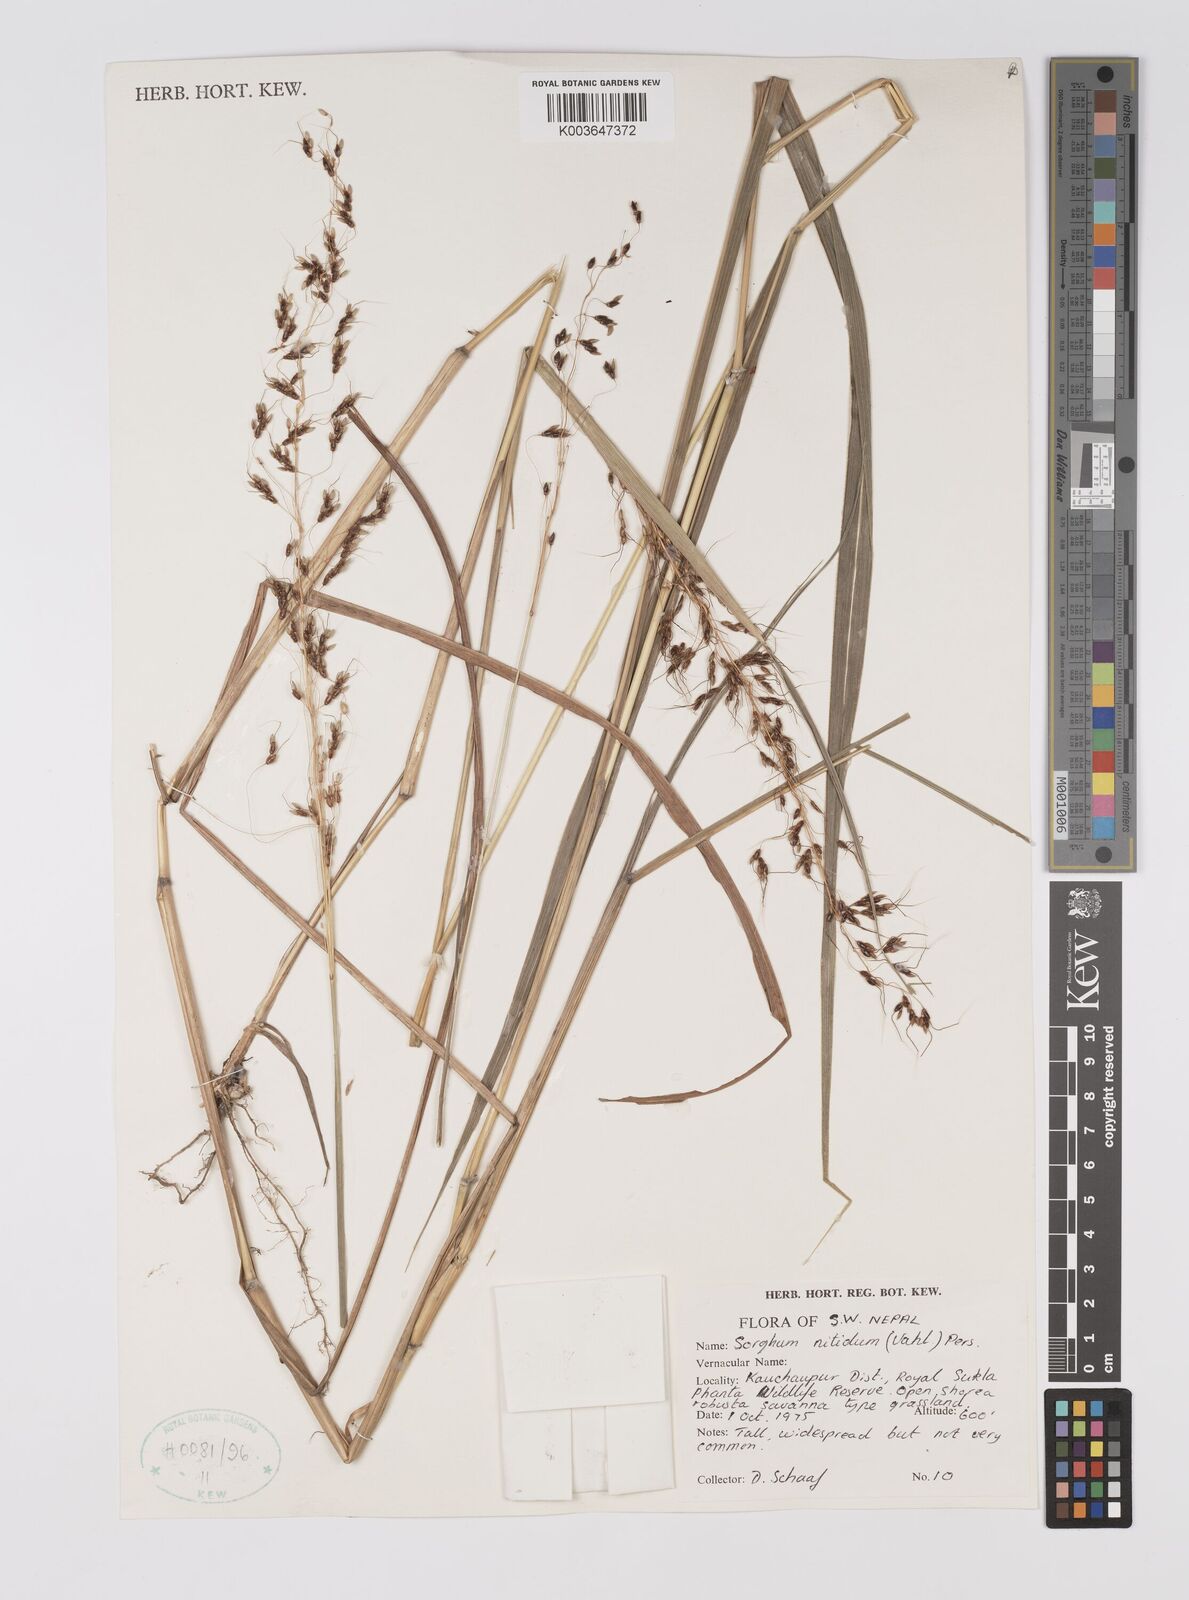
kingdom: Plantae
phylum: Tracheophyta
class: Liliopsida
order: Poales
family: Poaceae
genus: Sorghum
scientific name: Sorghum nitidum
